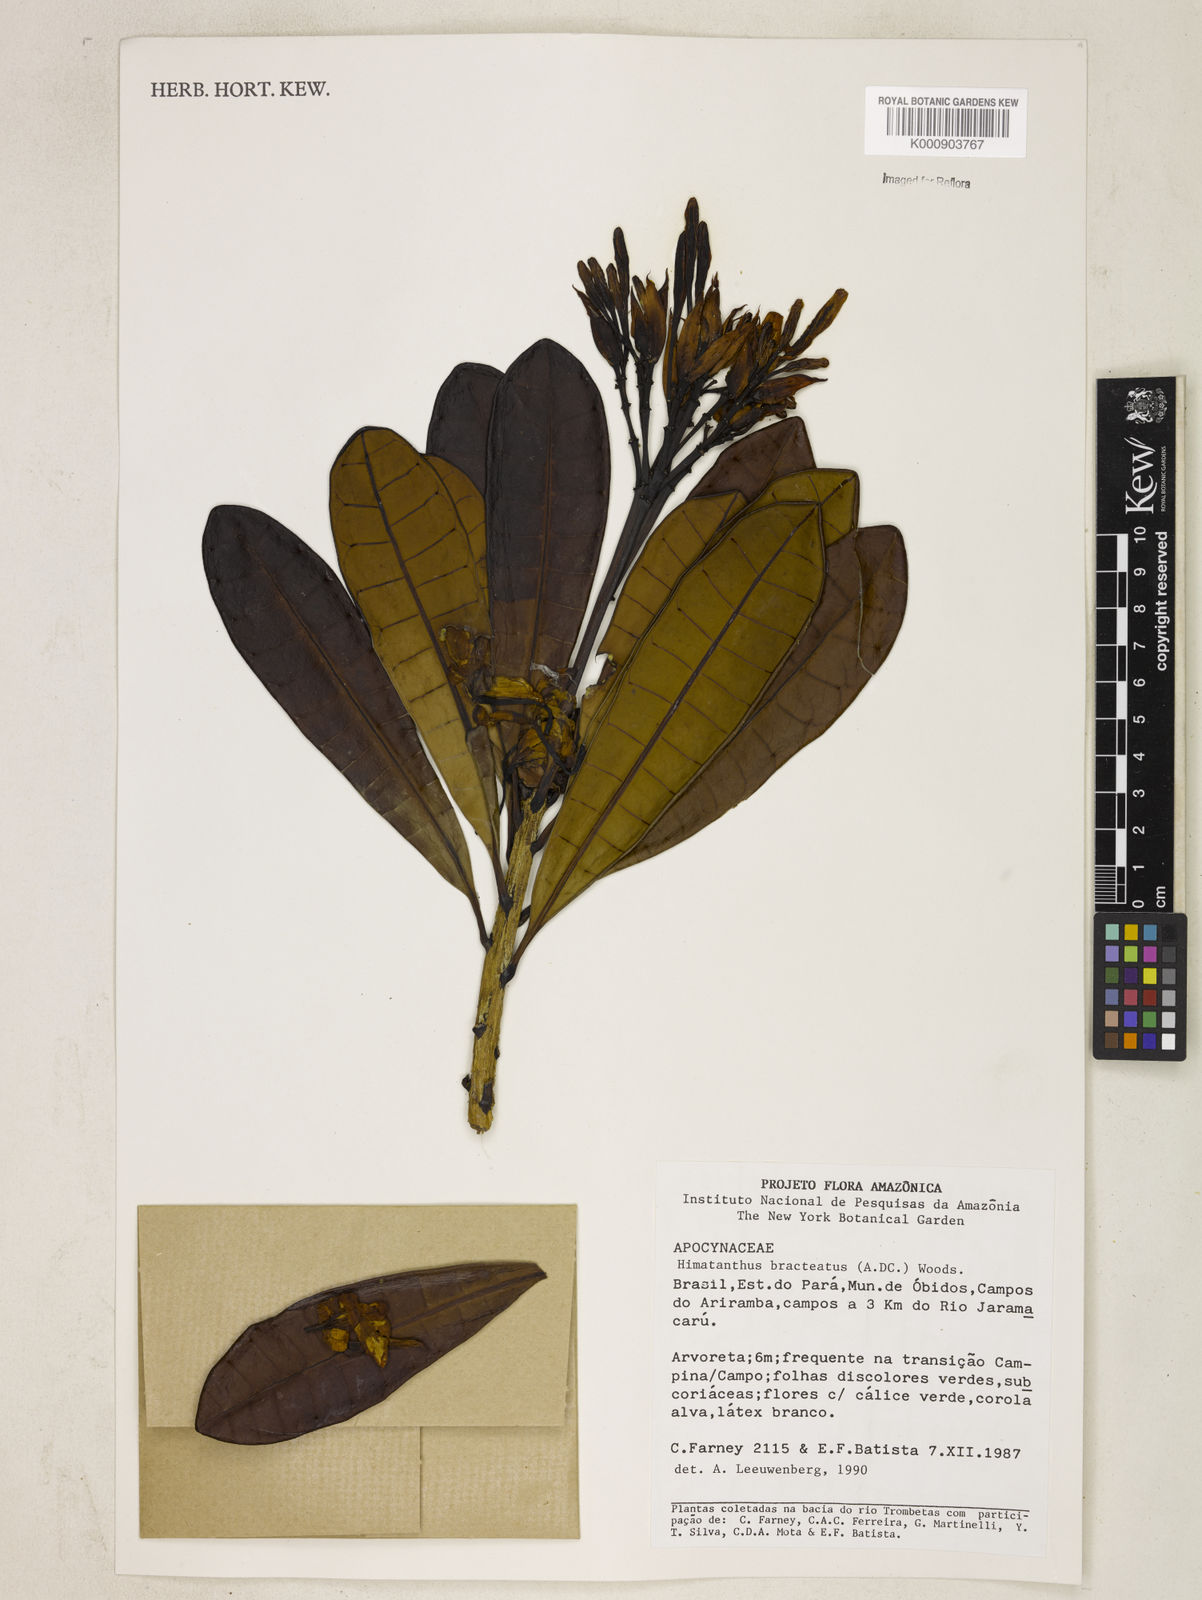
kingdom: Plantae
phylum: Tracheophyta
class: Magnoliopsida
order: Gentianales
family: Apocynaceae
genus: Himatanthus
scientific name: Himatanthus bracteatus
